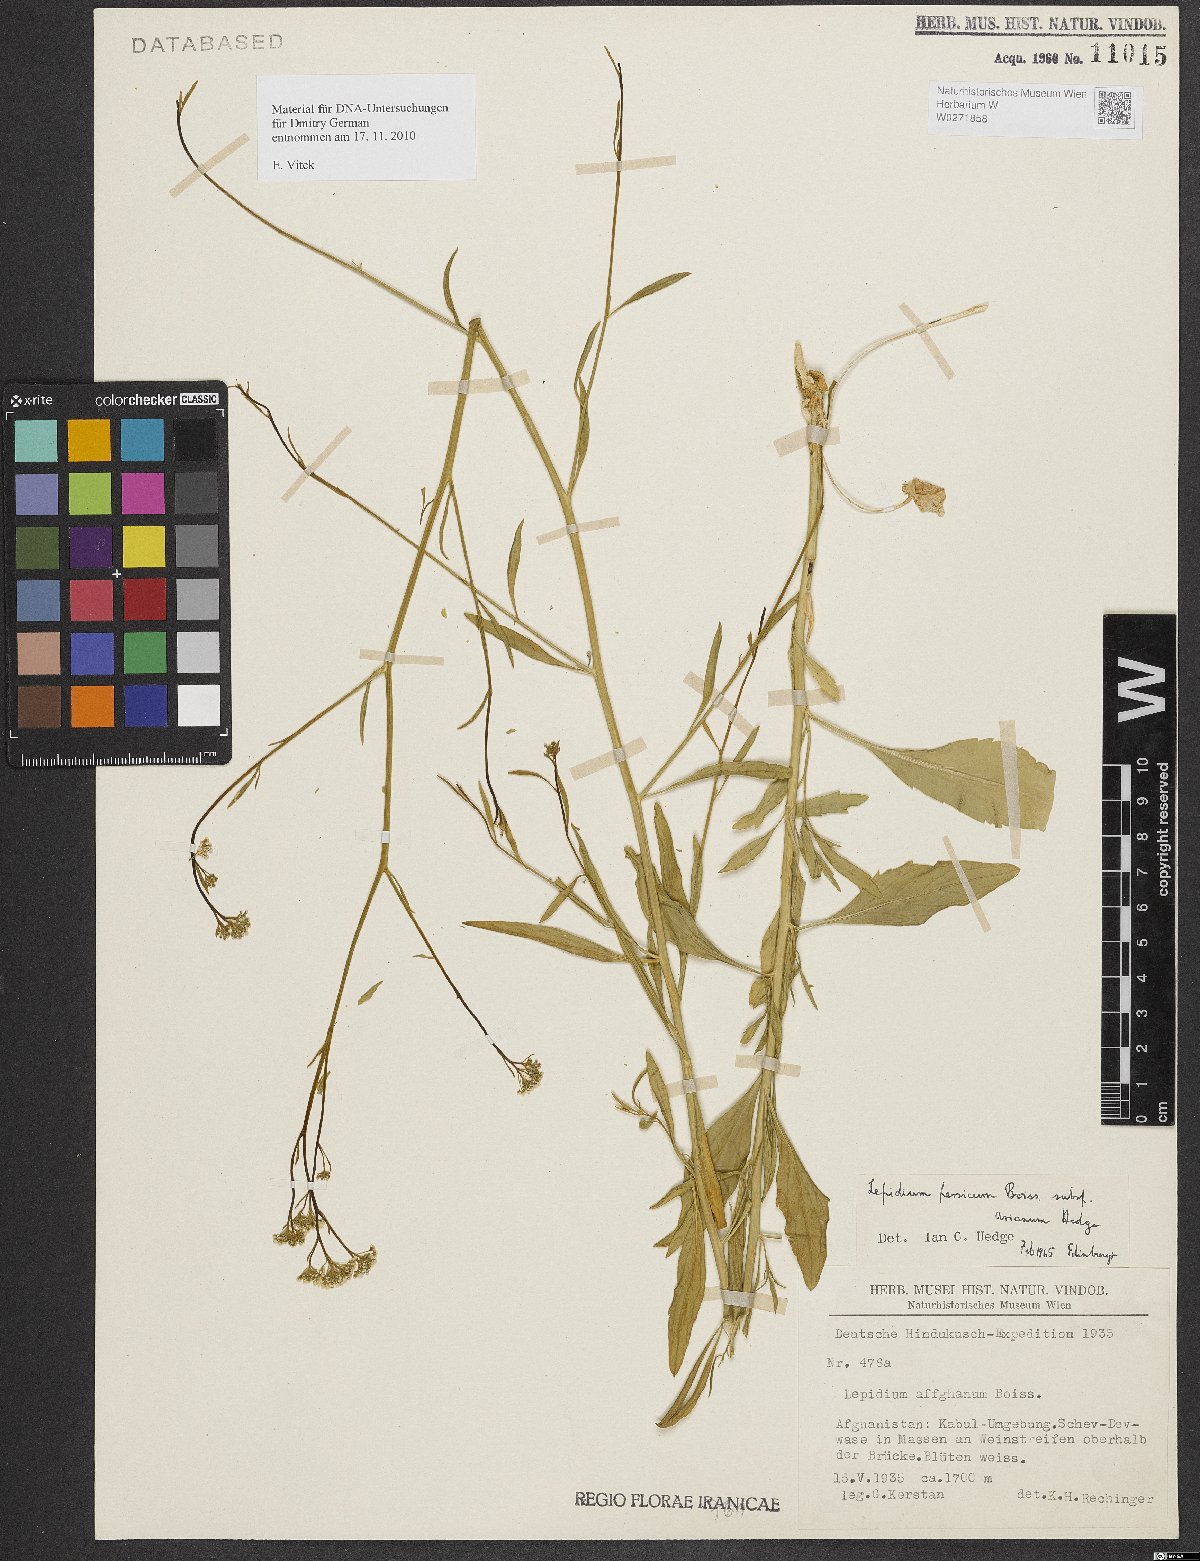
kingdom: Plantae
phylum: Tracheophyta
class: Magnoliopsida
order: Brassicales
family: Brassicaceae
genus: Lepidium
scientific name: Lepidium ferganense
